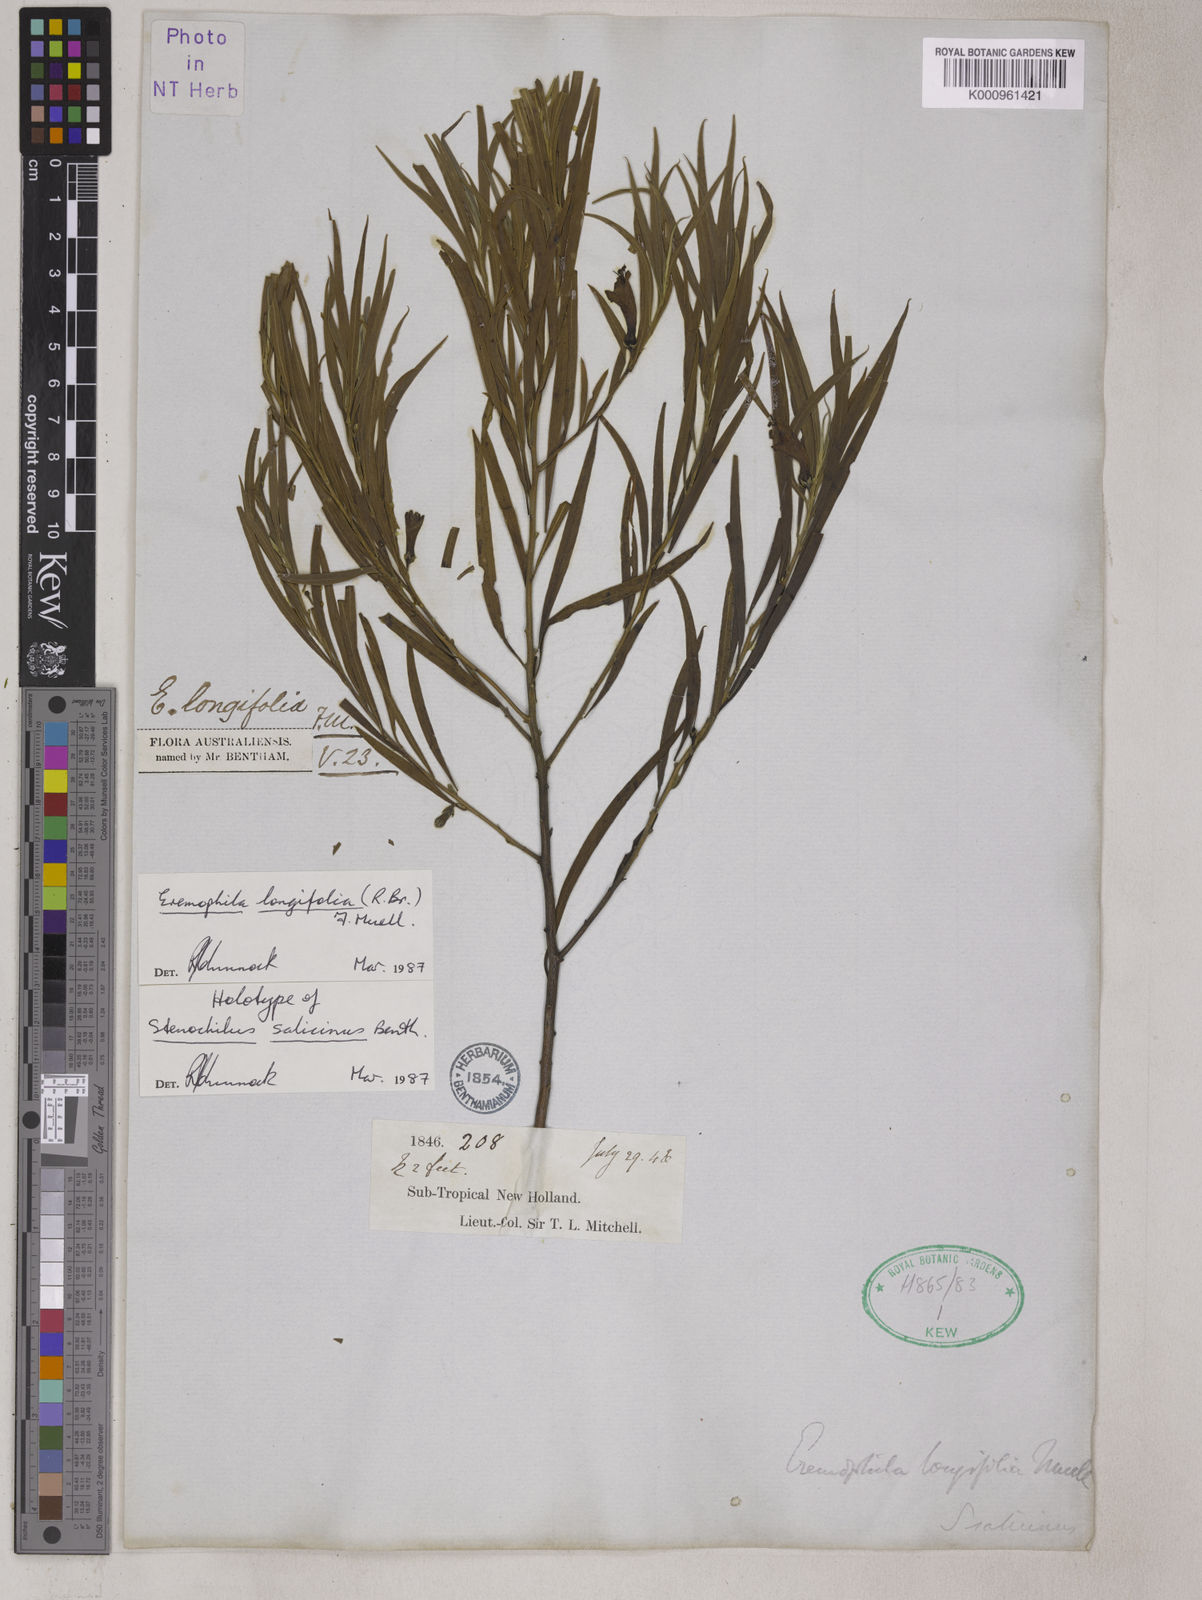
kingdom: Plantae
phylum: Tracheophyta
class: Magnoliopsida
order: Lamiales
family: Scrophulariaceae
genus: Eremophila
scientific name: Eremophila longifolia
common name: Longleaf emubush
